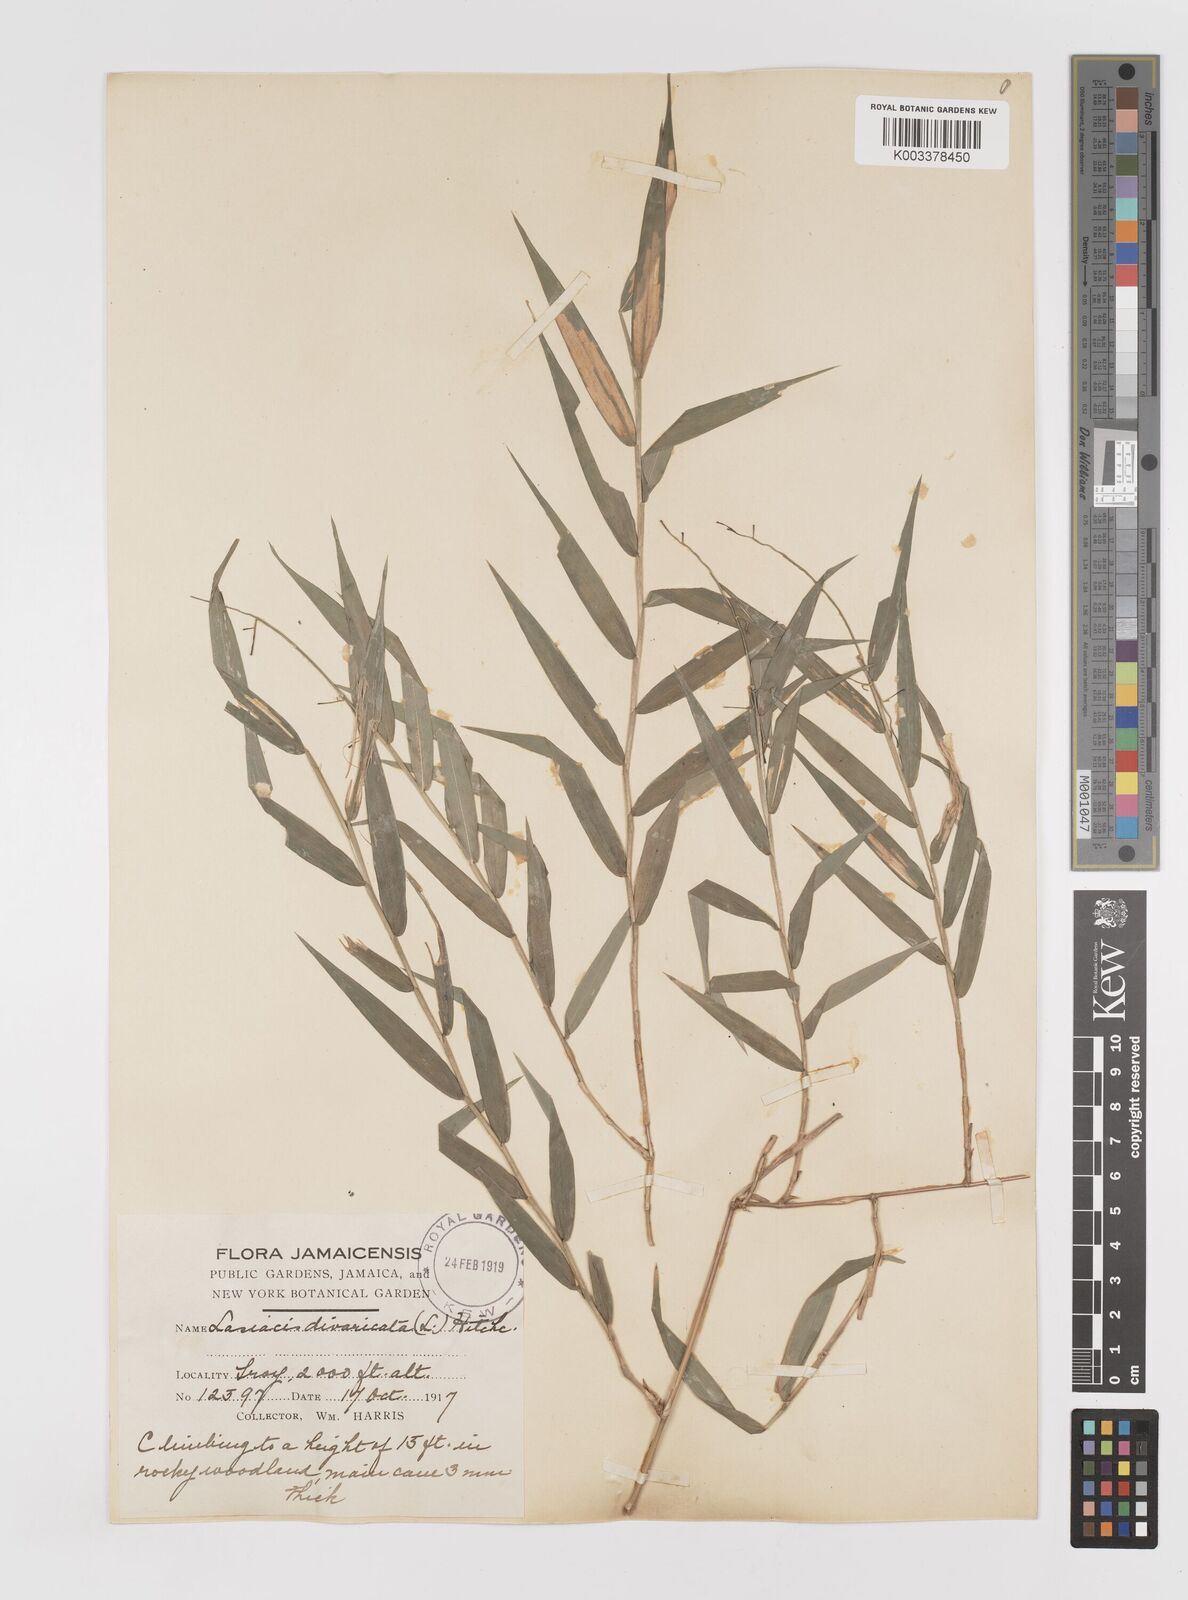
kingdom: Plantae
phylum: Tracheophyta
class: Liliopsida
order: Poales
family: Poaceae
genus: Lasiacis
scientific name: Lasiacis divaricata
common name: Smallcane
